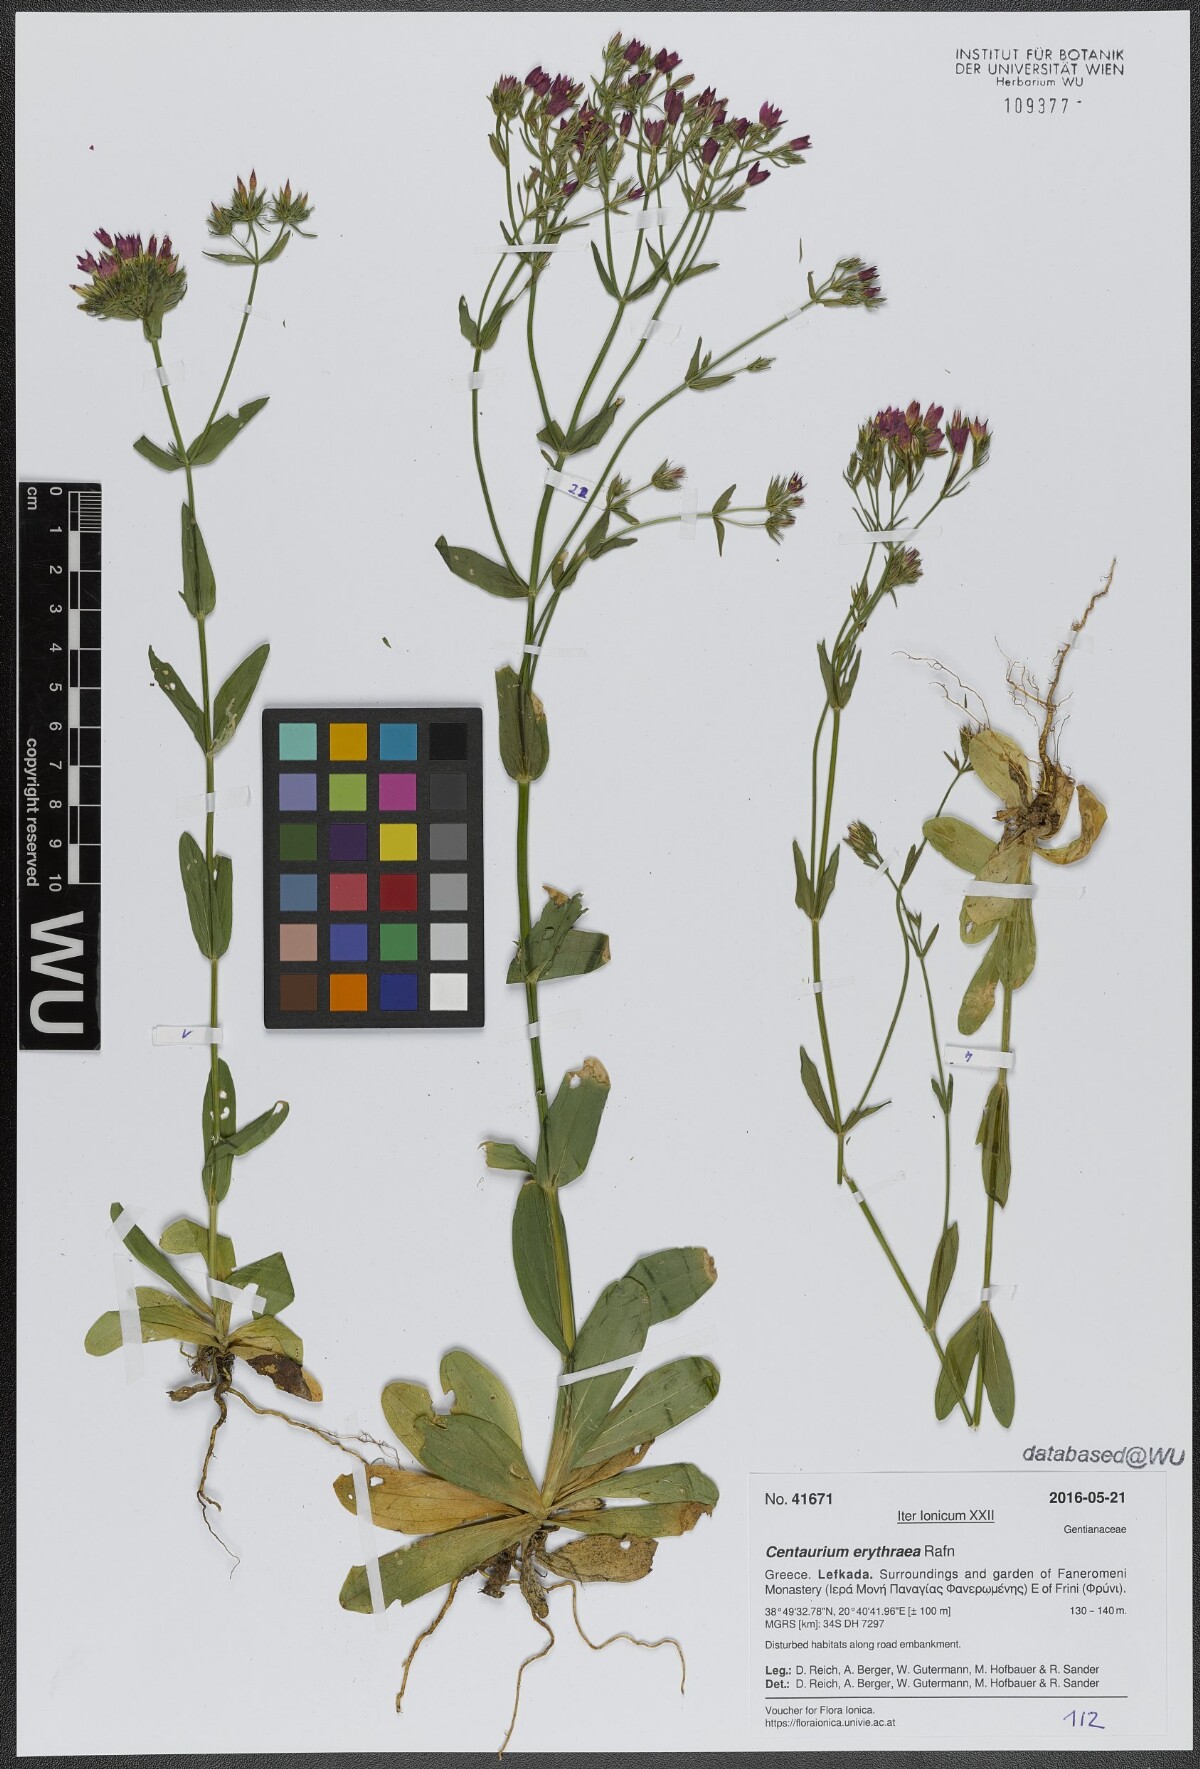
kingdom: Plantae
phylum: Tracheophyta
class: Magnoliopsida
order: Gentianales
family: Gentianaceae
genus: Centaurium
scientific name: Centaurium erythraea
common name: Common centaury
